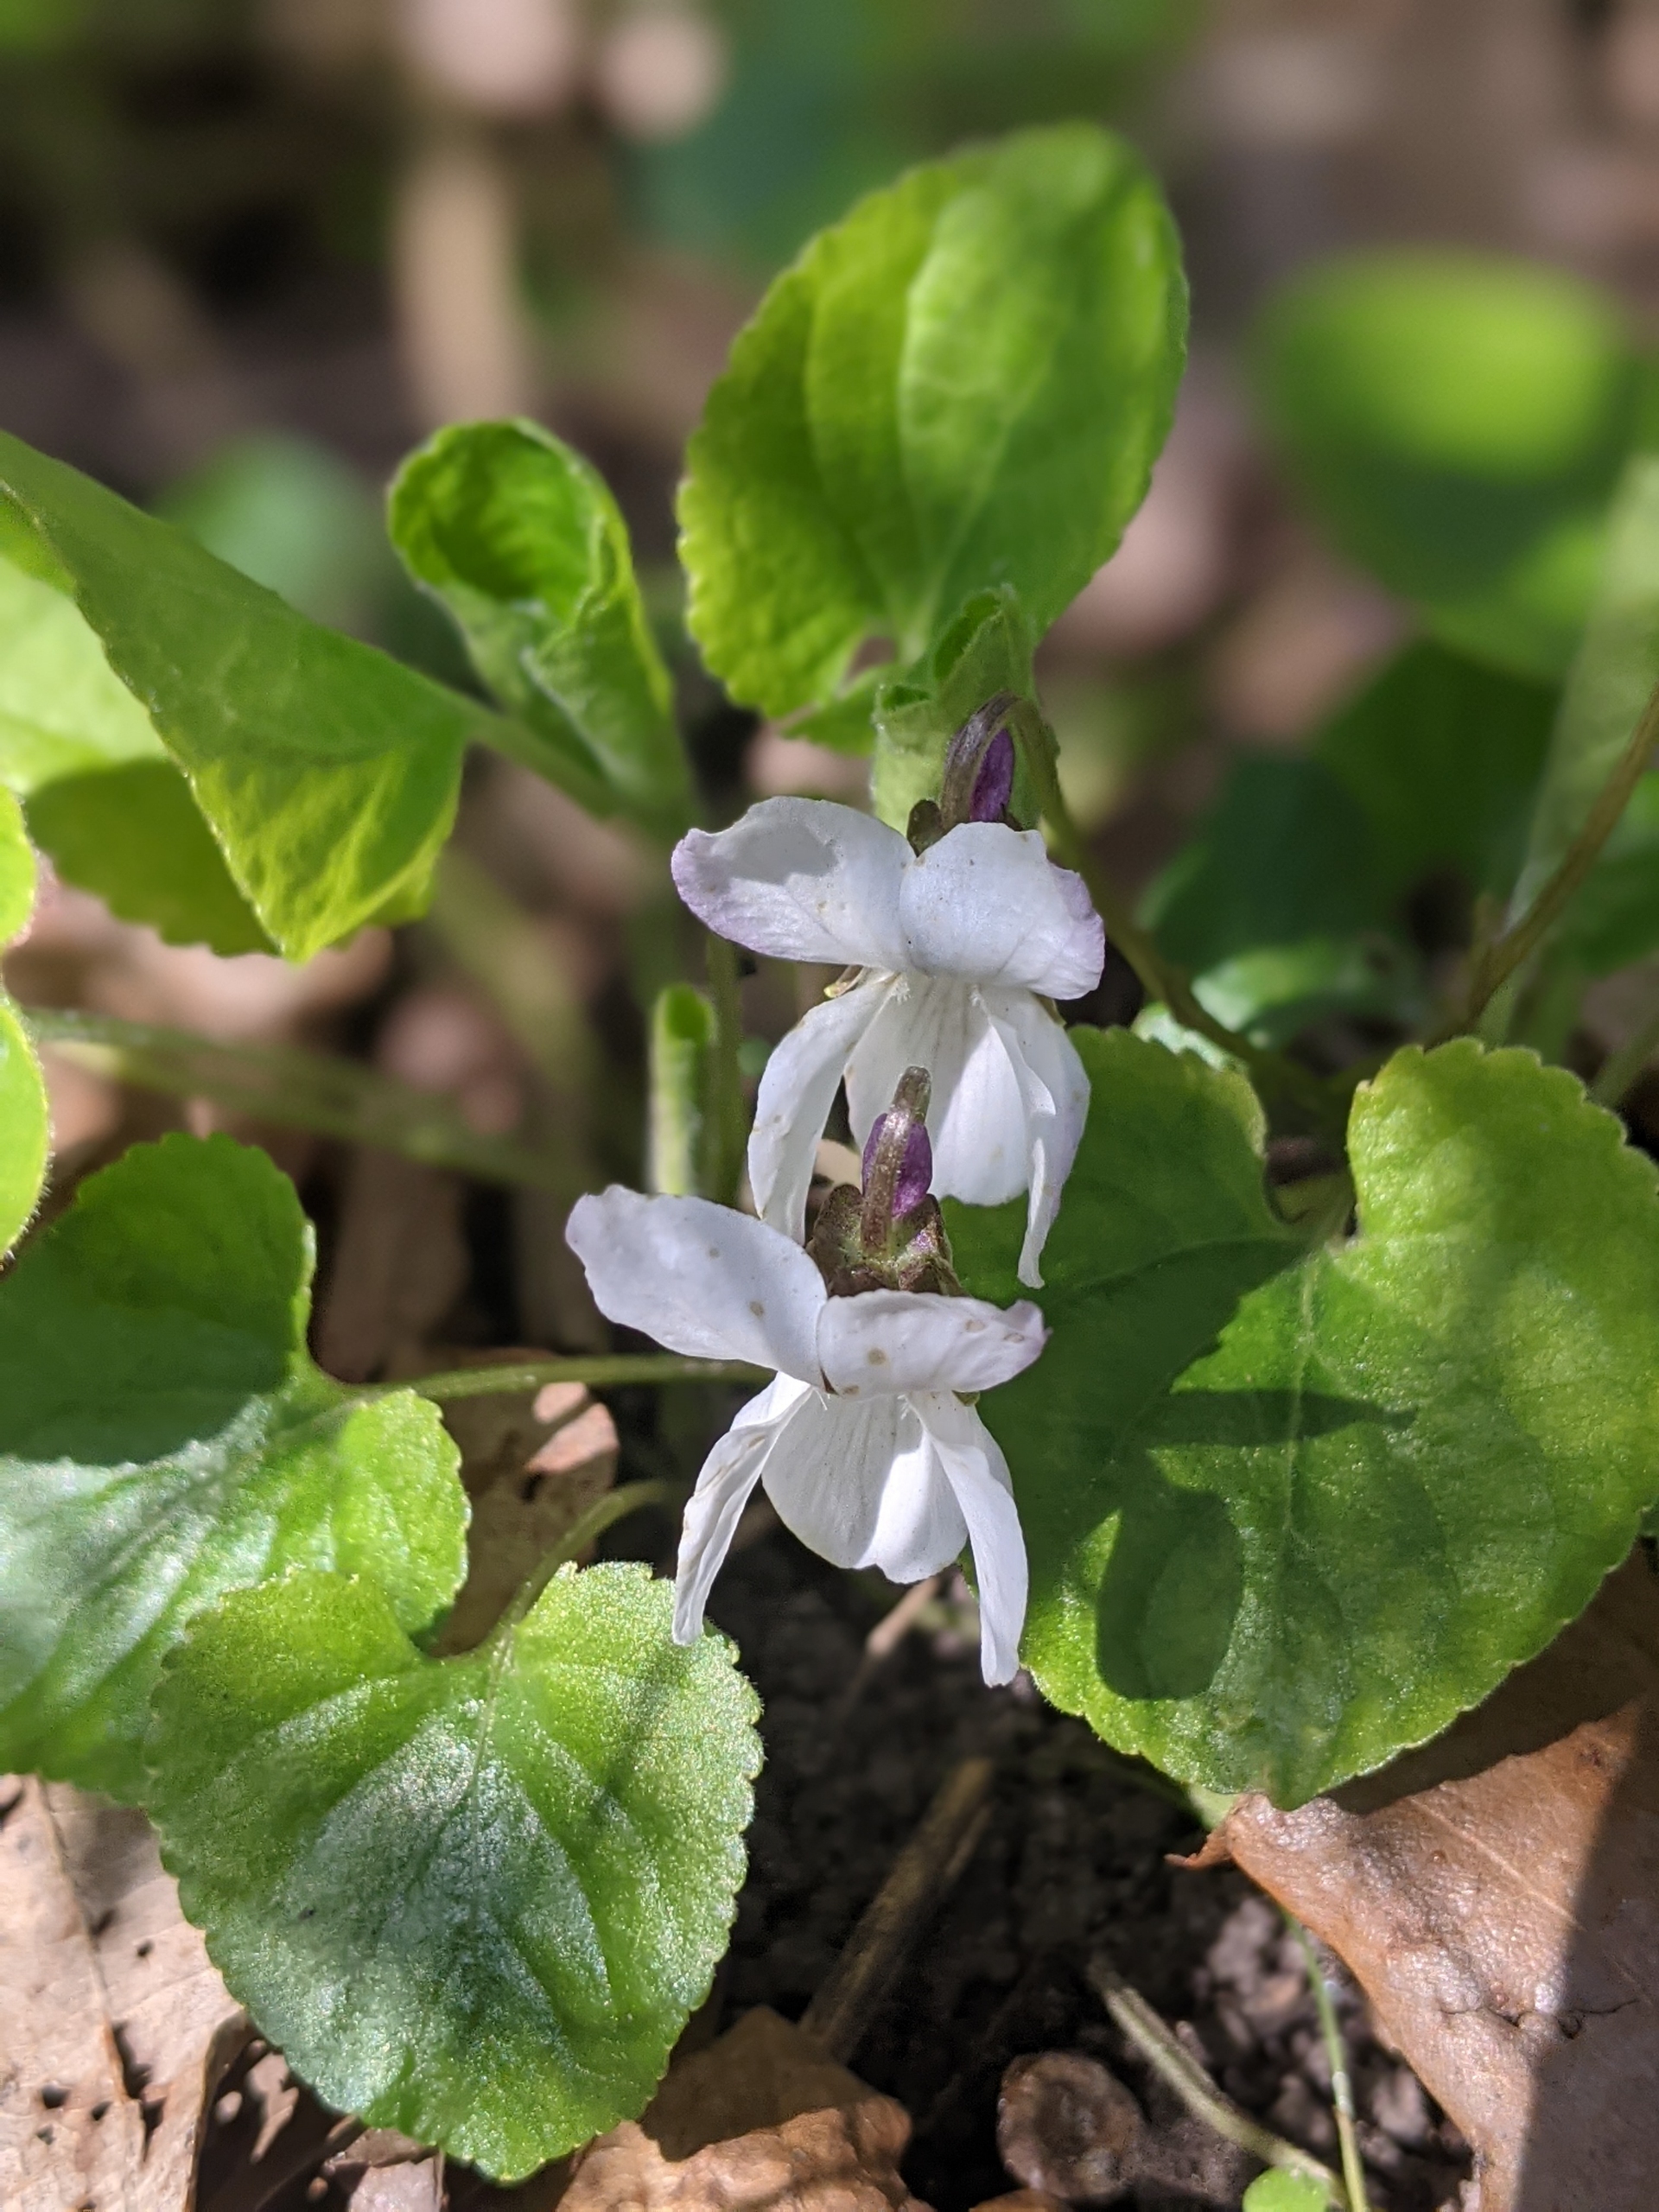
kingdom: Plantae
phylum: Tracheophyta
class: Magnoliopsida
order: Malpighiales
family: Violaceae
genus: Viola
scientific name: Viola odorata
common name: Marts-viol
